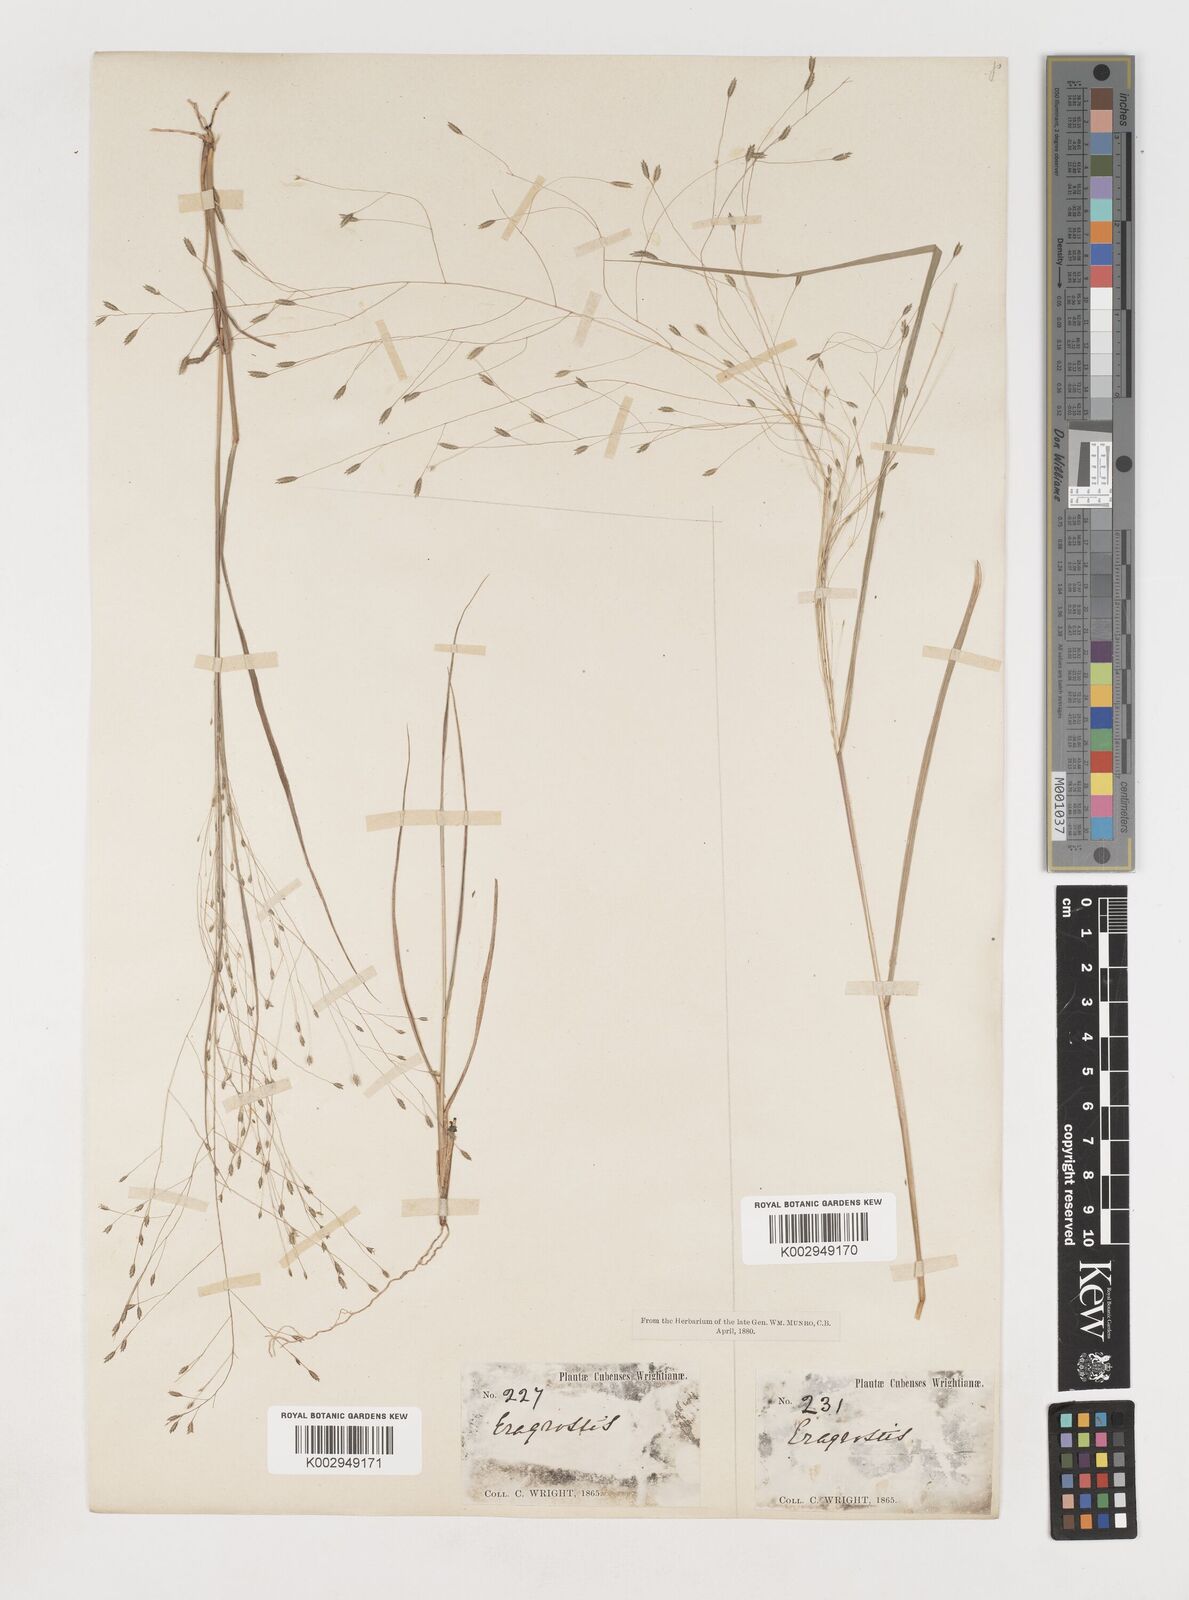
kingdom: Plantae
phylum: Tracheophyta
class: Liliopsida
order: Poales
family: Poaceae
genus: Eragrostis
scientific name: Eragrostis elliottii
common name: Elliott's love grass
